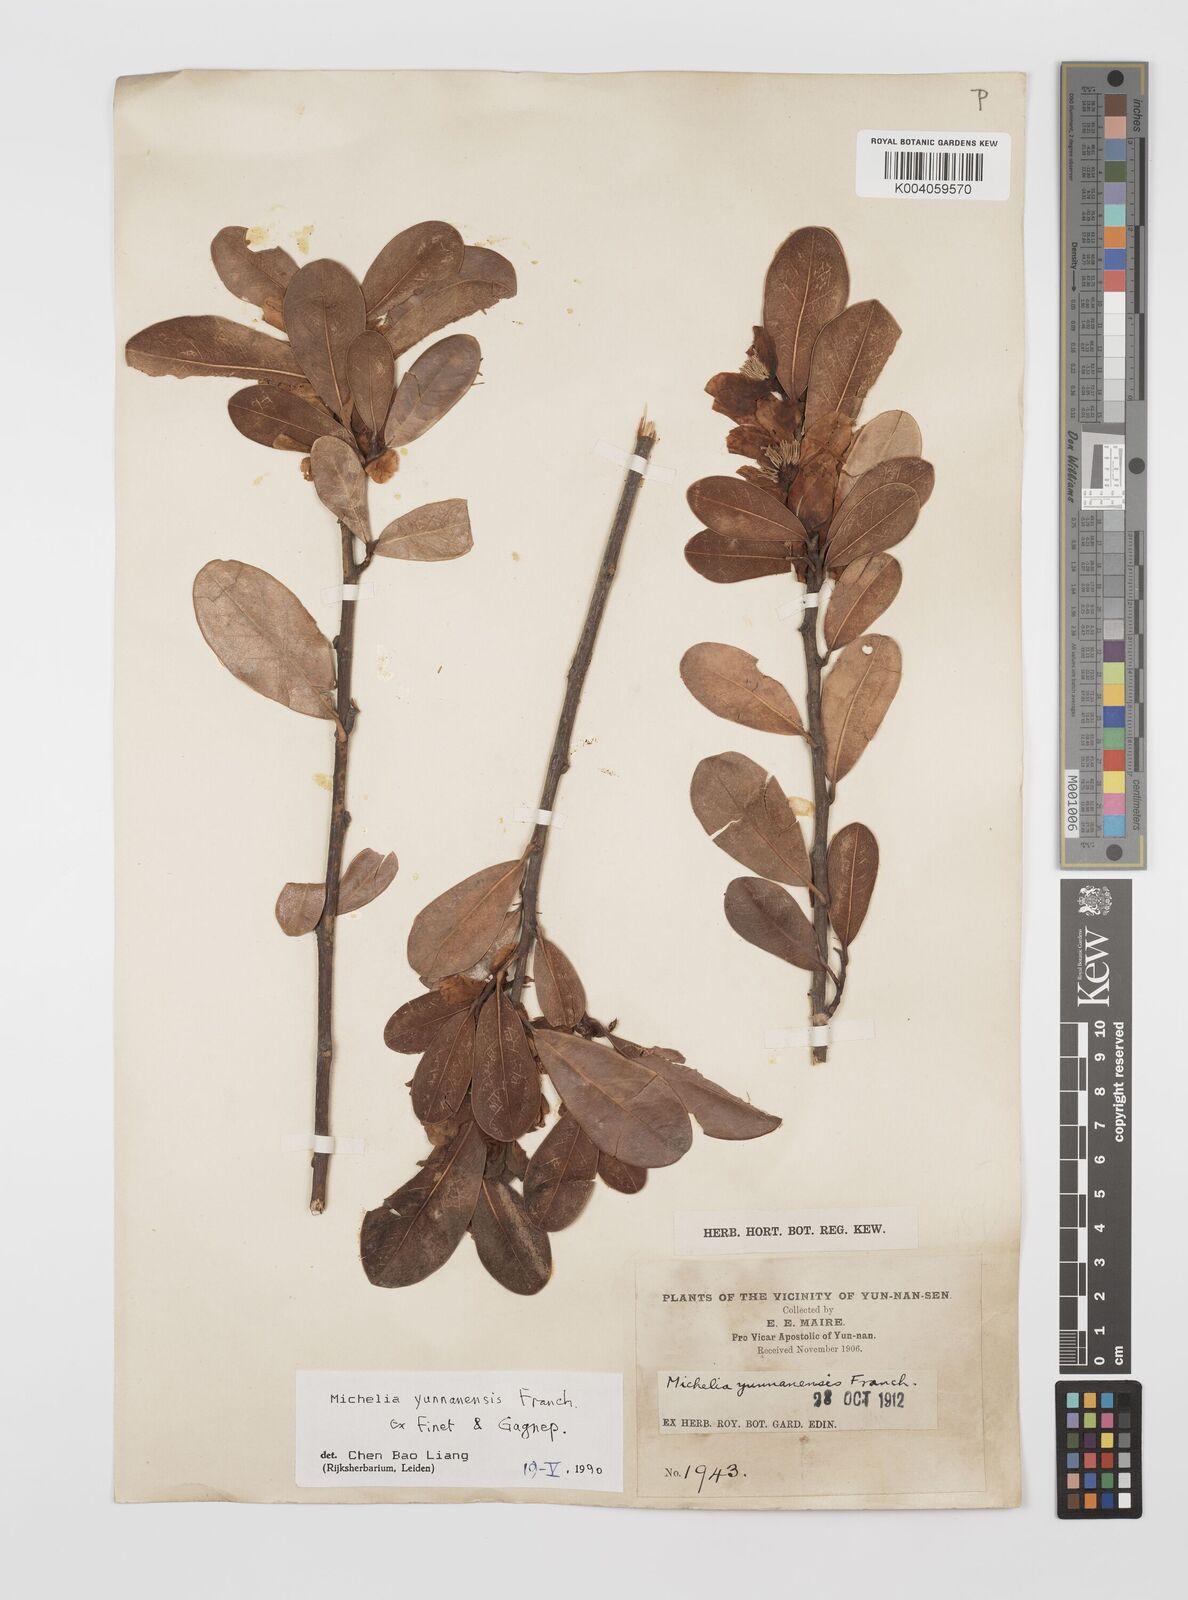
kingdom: Plantae
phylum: Tracheophyta
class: Magnoliopsida
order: Magnoliales
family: Magnoliaceae
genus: Magnolia
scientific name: Magnolia laevifolia
